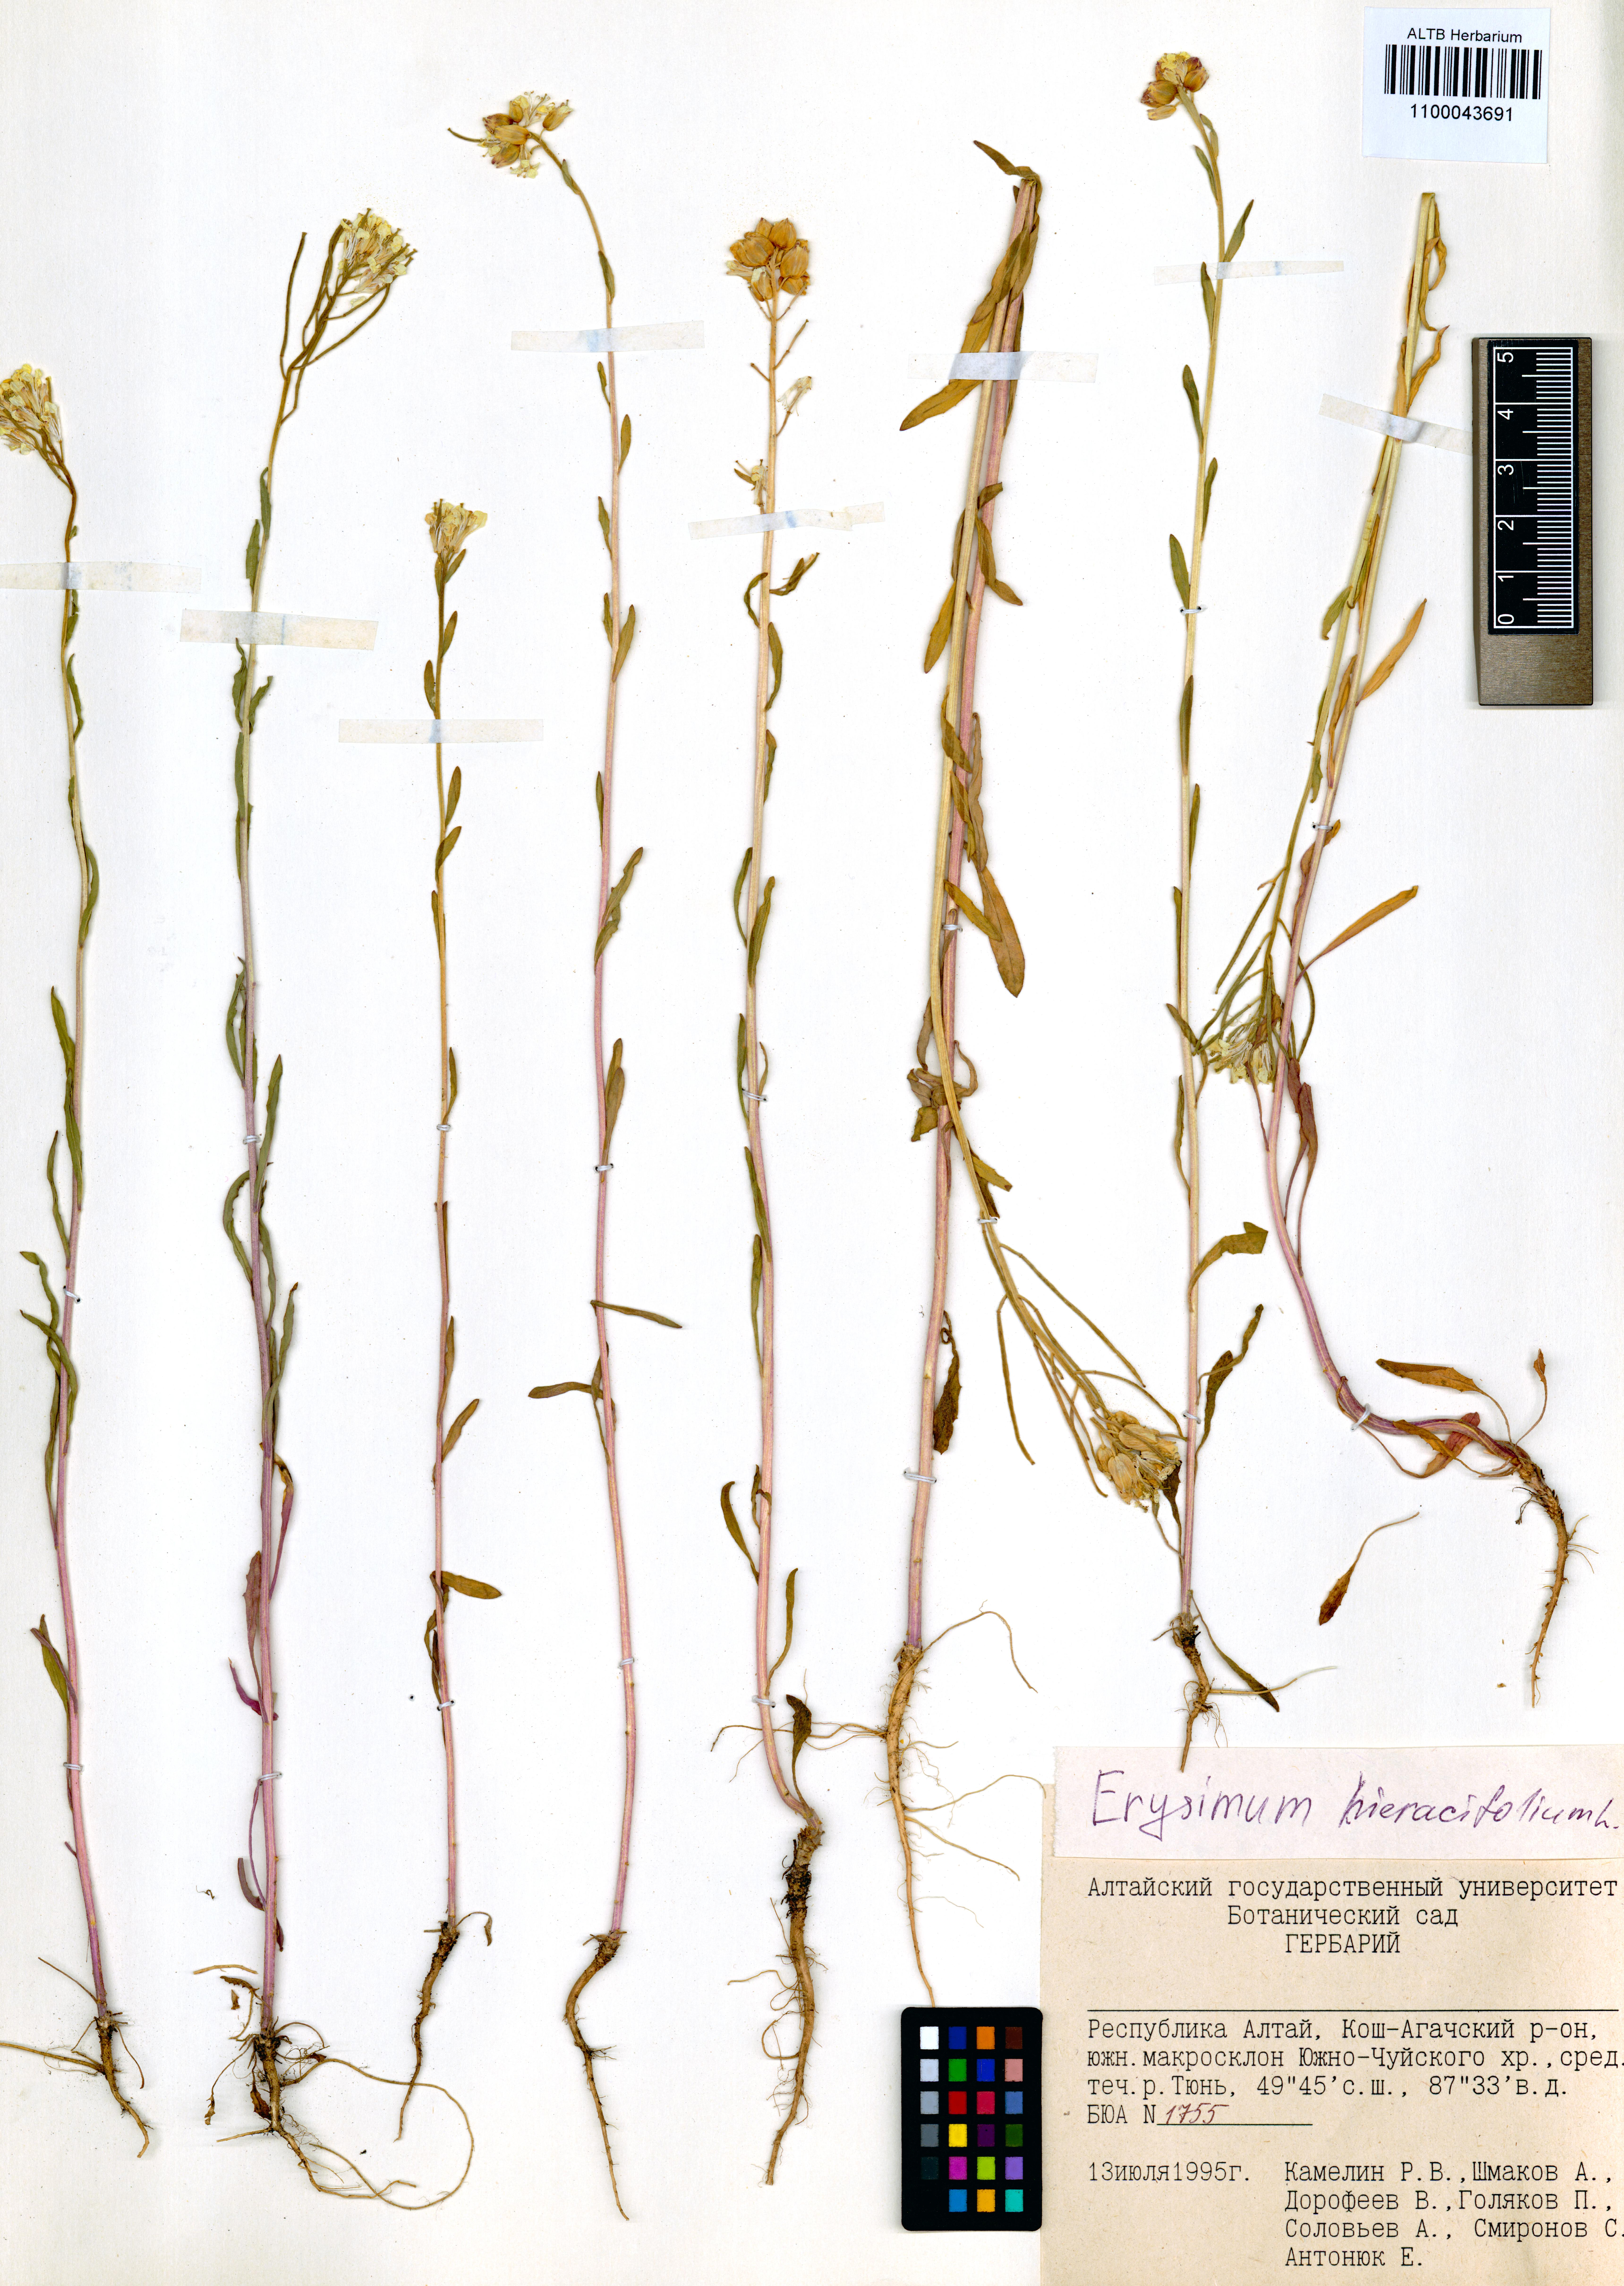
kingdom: Plantae
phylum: Tracheophyta
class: Magnoliopsida
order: Brassicales
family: Brassicaceae
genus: Erysimum
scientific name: Erysimum hieraciifolium
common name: European wallflower
